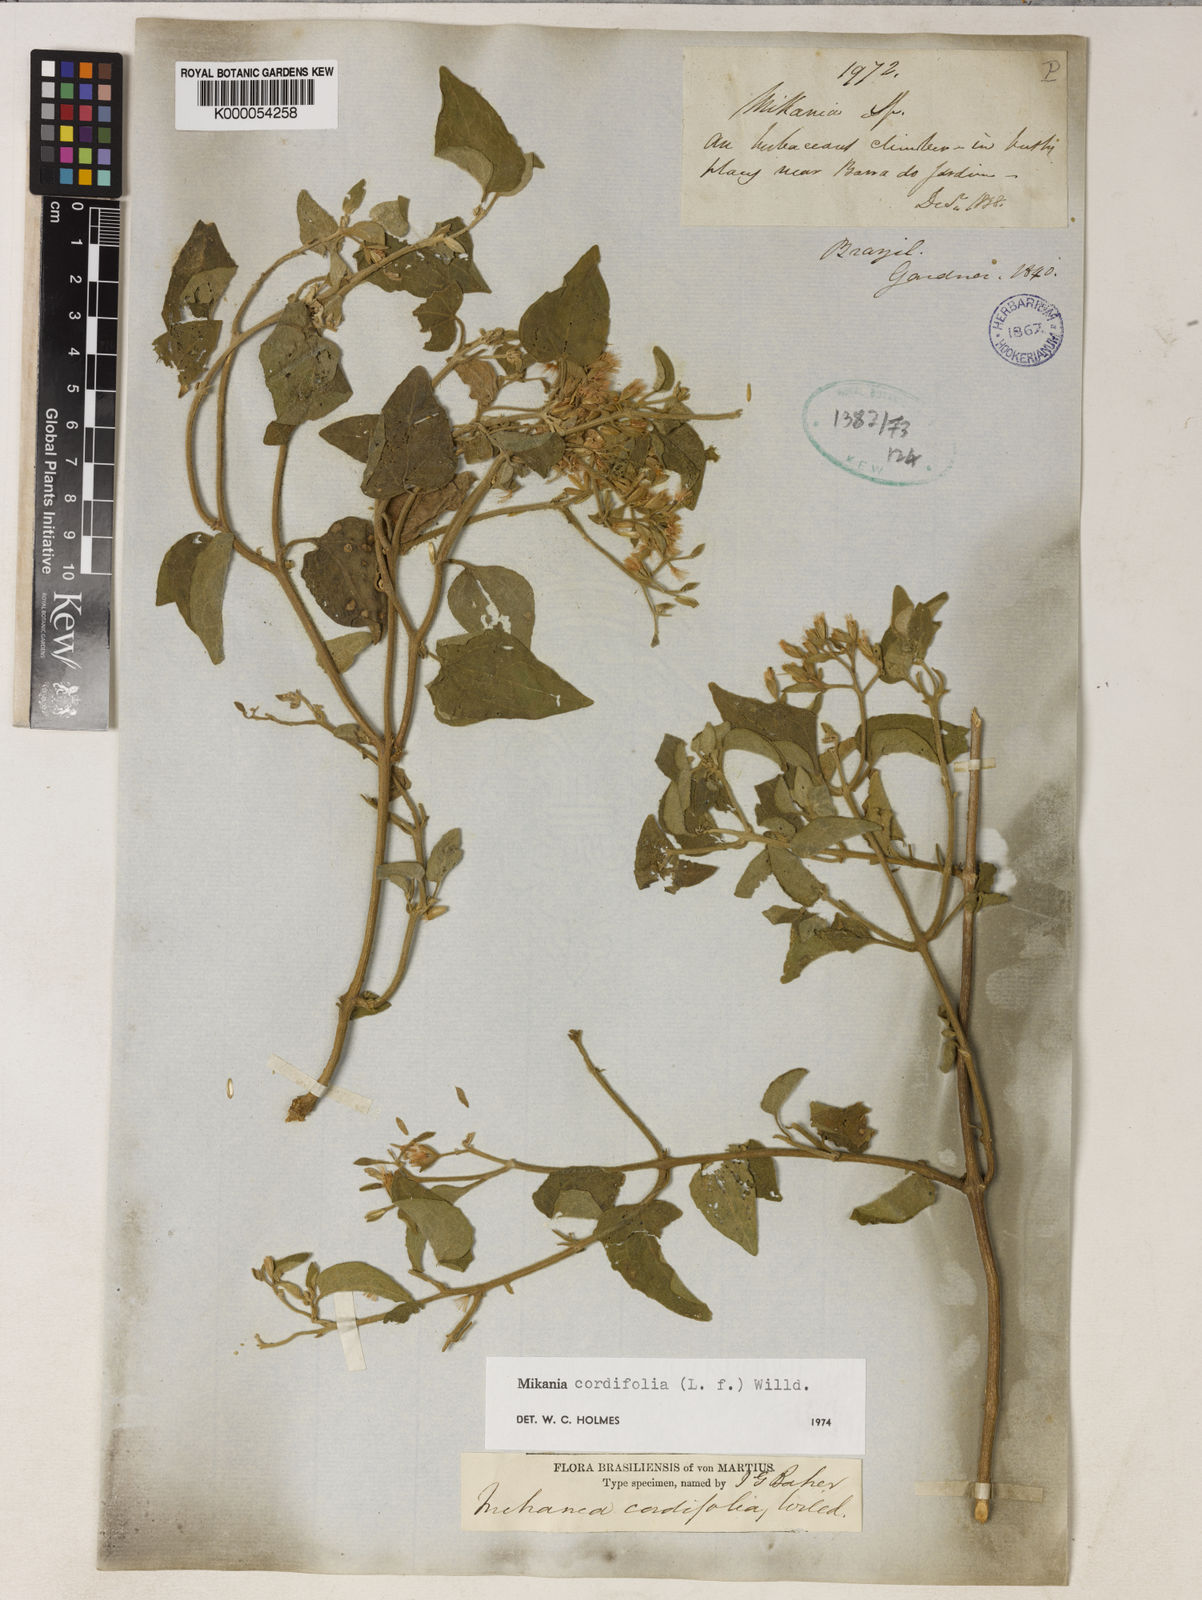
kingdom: Plantae
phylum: Tracheophyta
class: Magnoliopsida
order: Asterales
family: Asteraceae
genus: Mikania
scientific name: Mikania cordifolia
